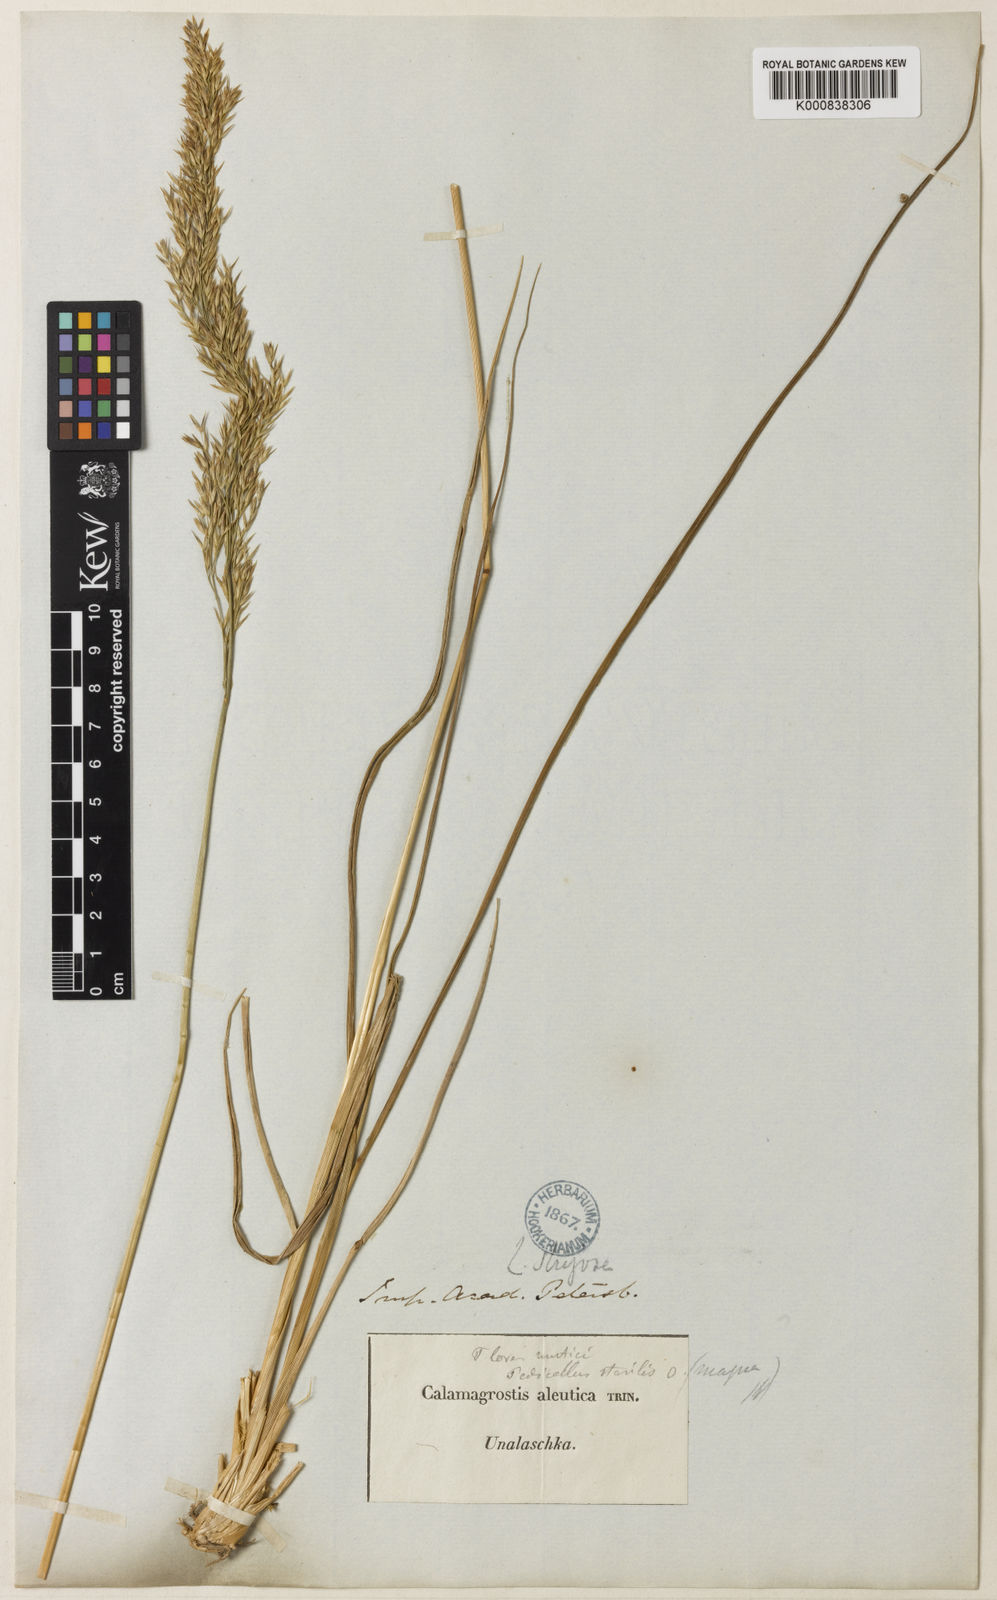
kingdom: Plantae
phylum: Tracheophyta
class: Liliopsida
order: Poales
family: Poaceae
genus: Calamagrostis
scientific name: Calamagrostis nutkaensis
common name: Pacific reed grass
